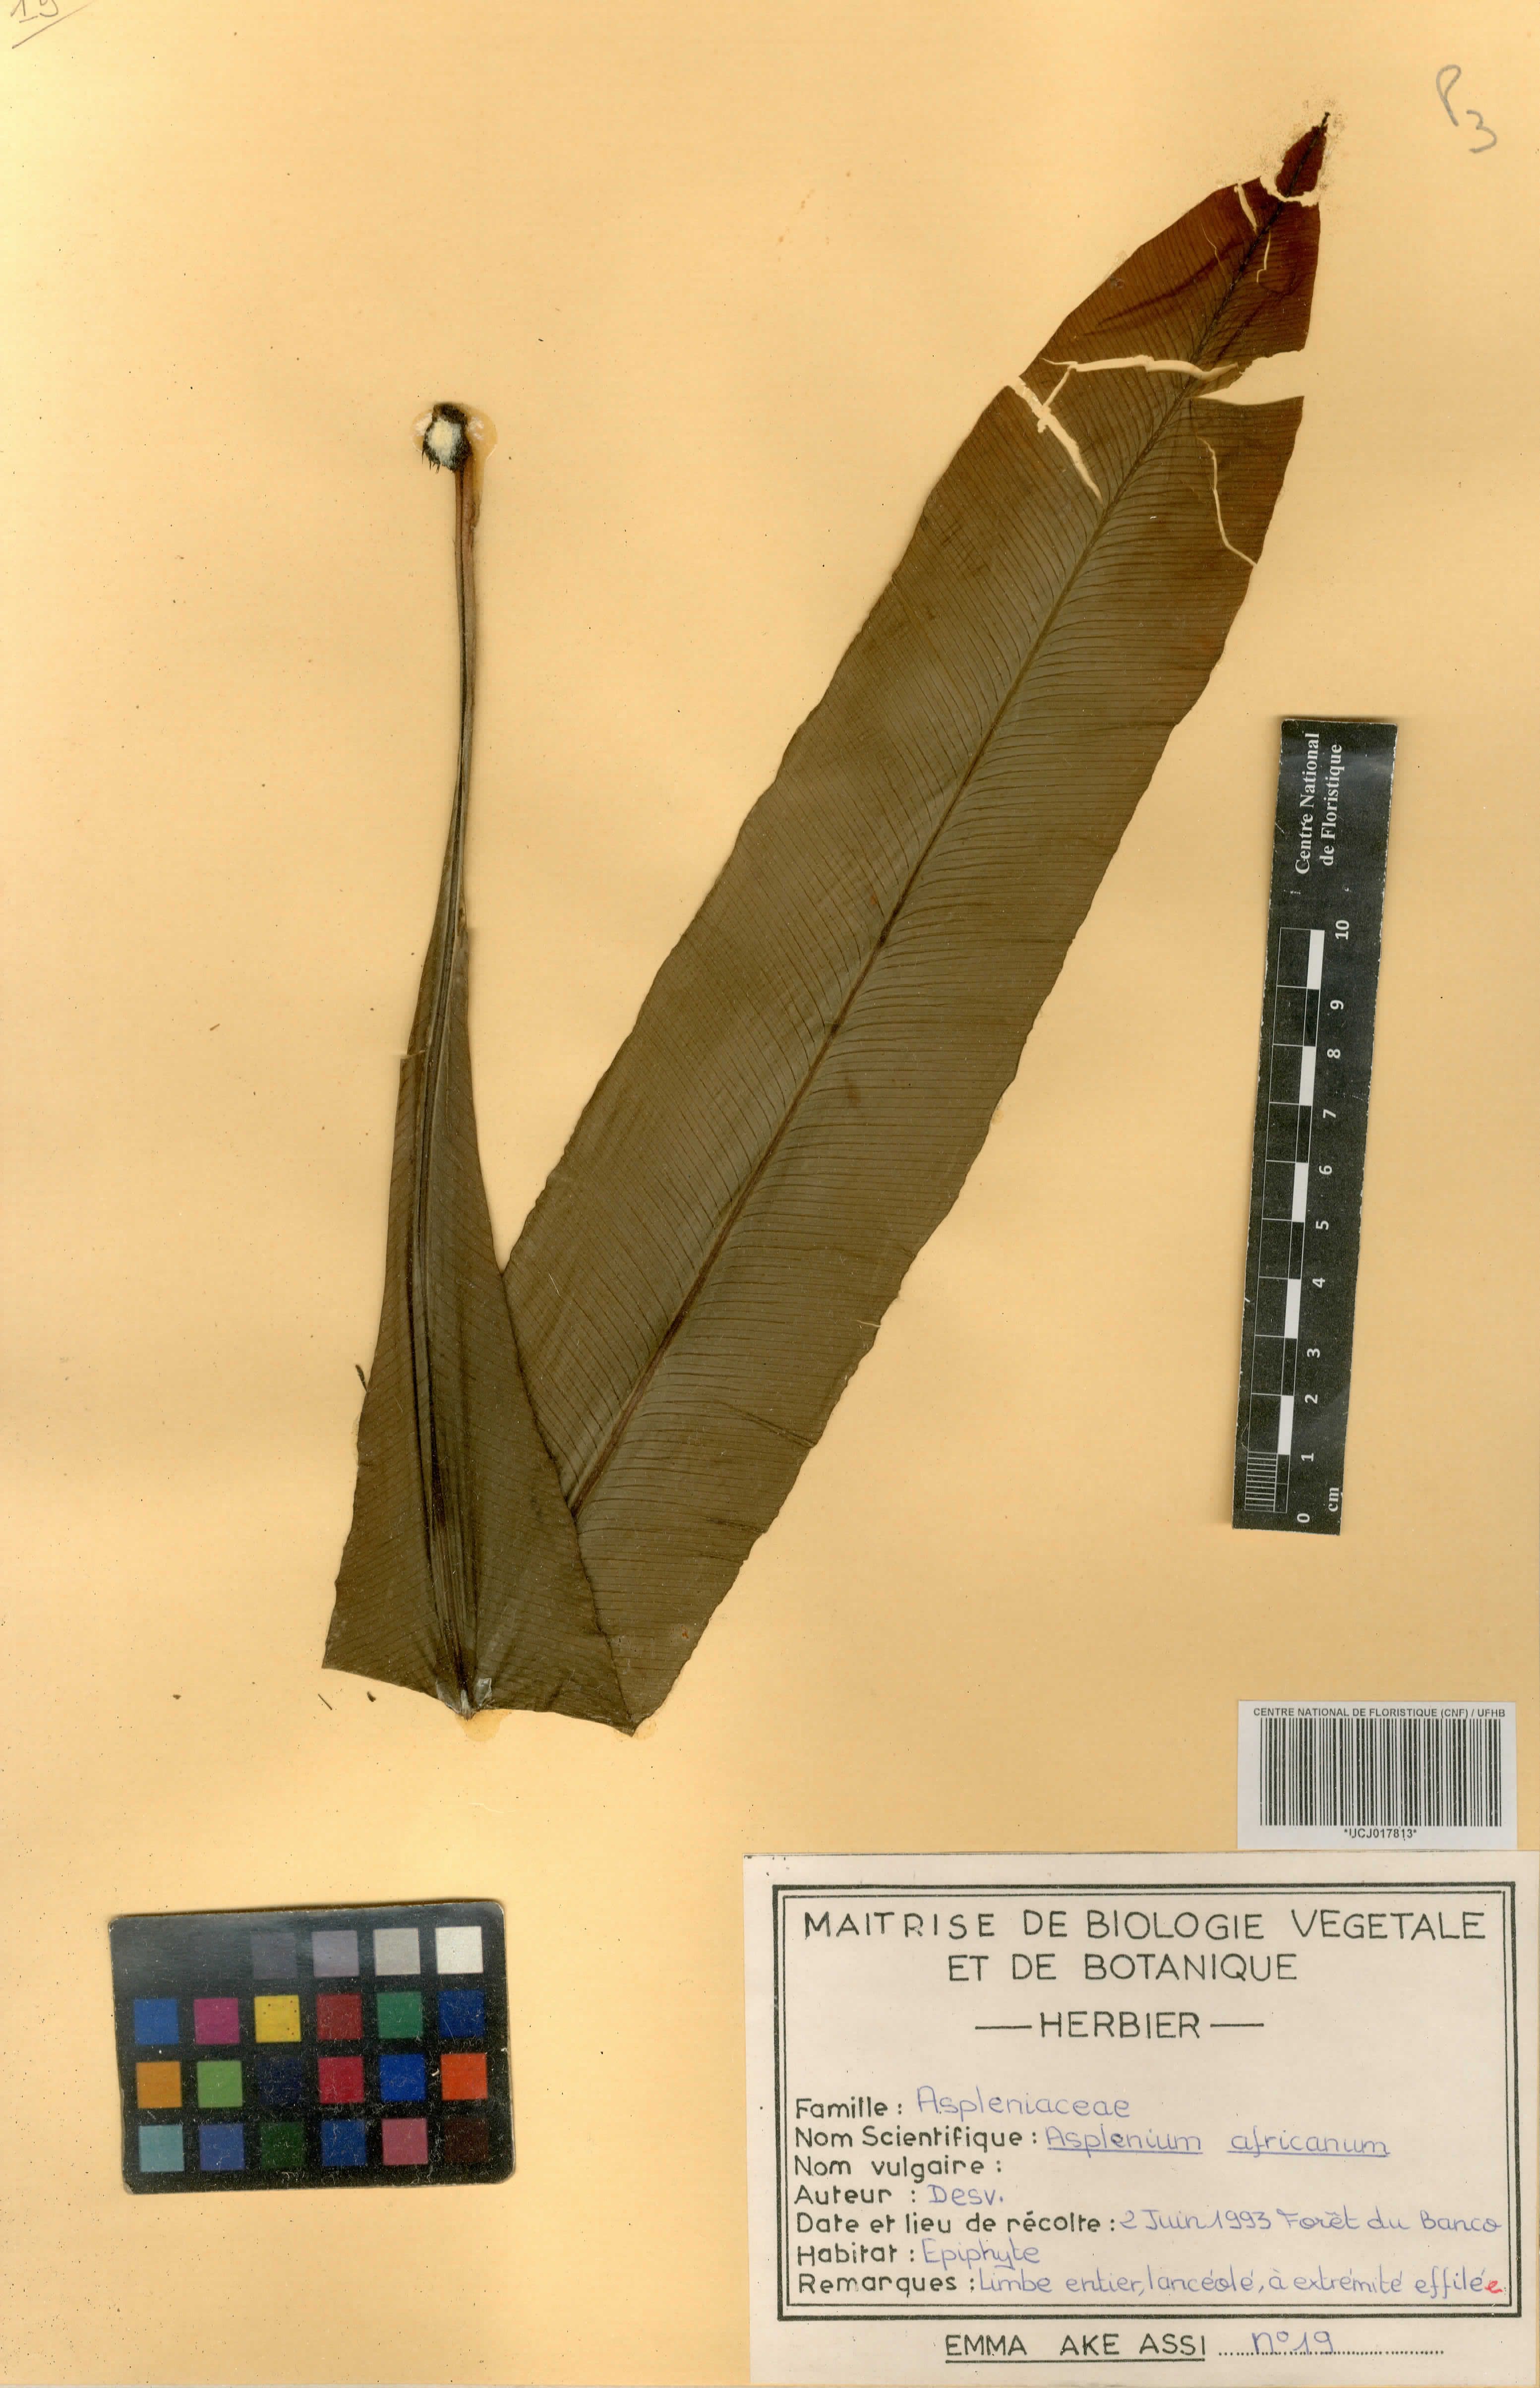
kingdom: Plantae
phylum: Tracheophyta
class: Polypodiopsida
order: Polypodiales
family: Aspleniaceae
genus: Asplenium
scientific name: Asplenium africanum
